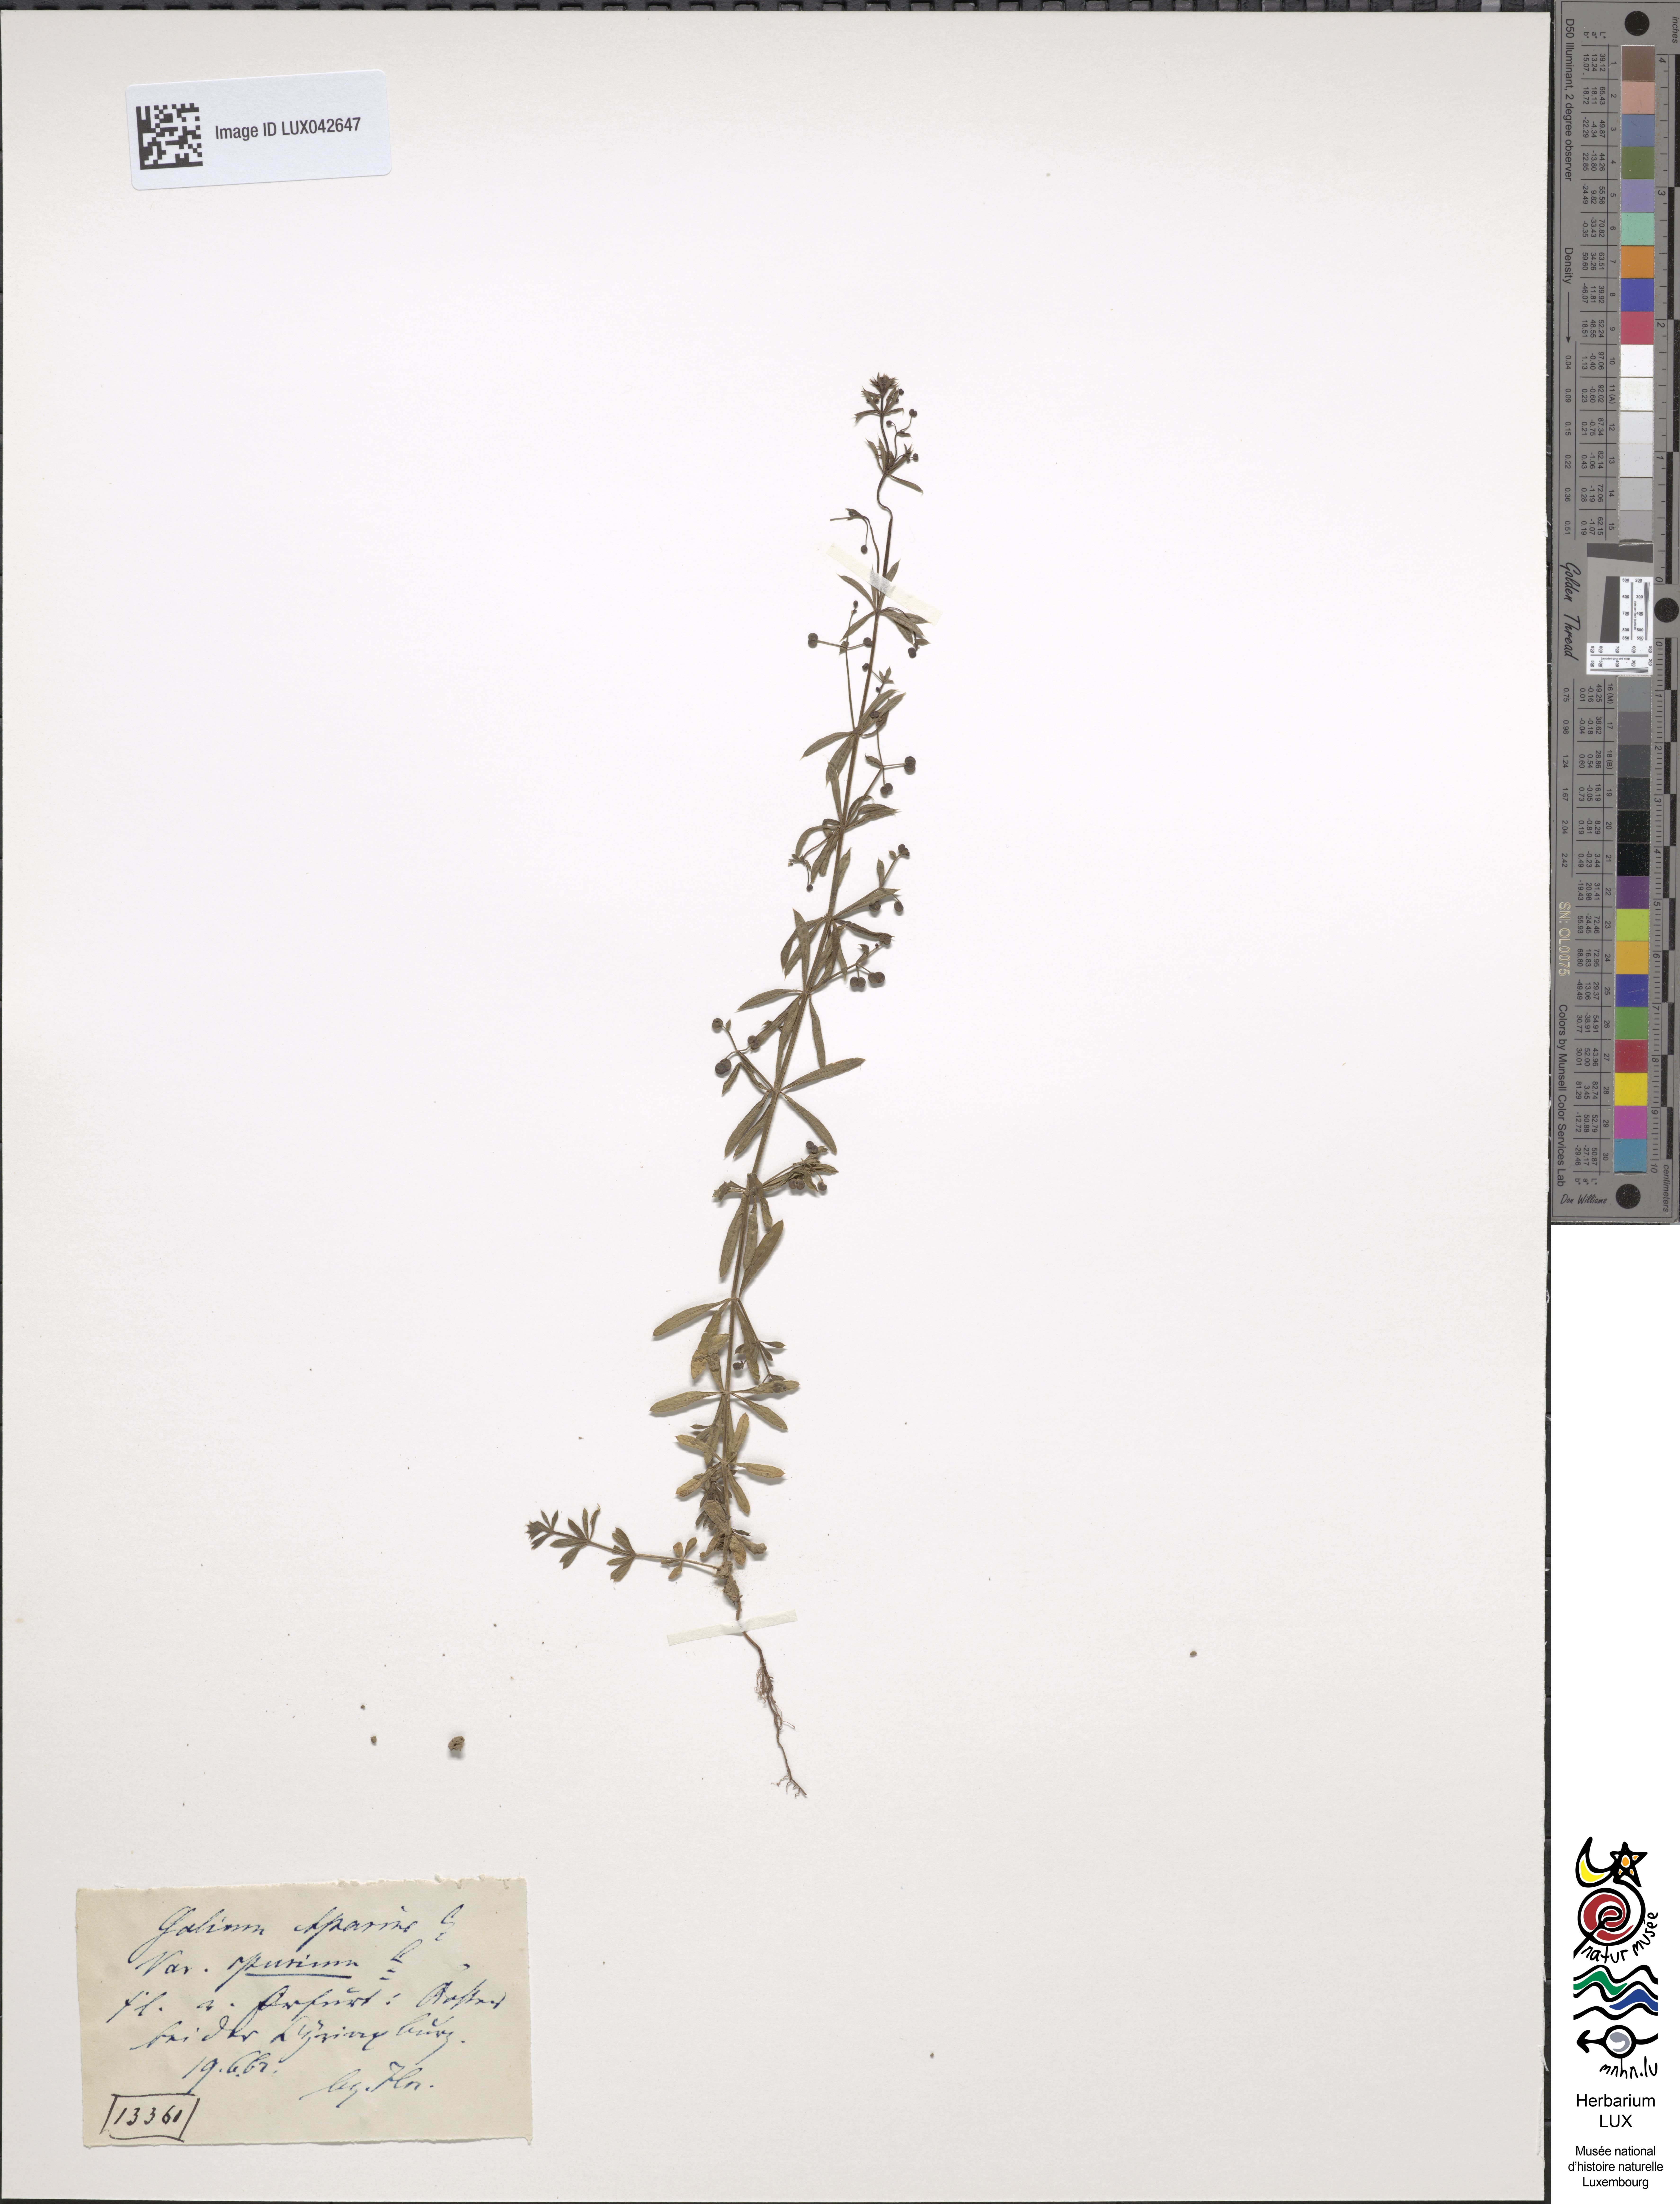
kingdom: Plantae
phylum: Tracheophyta
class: Magnoliopsida
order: Gentianales
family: Rubiaceae
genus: Galium
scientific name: Galium spurium
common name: False cleavers
